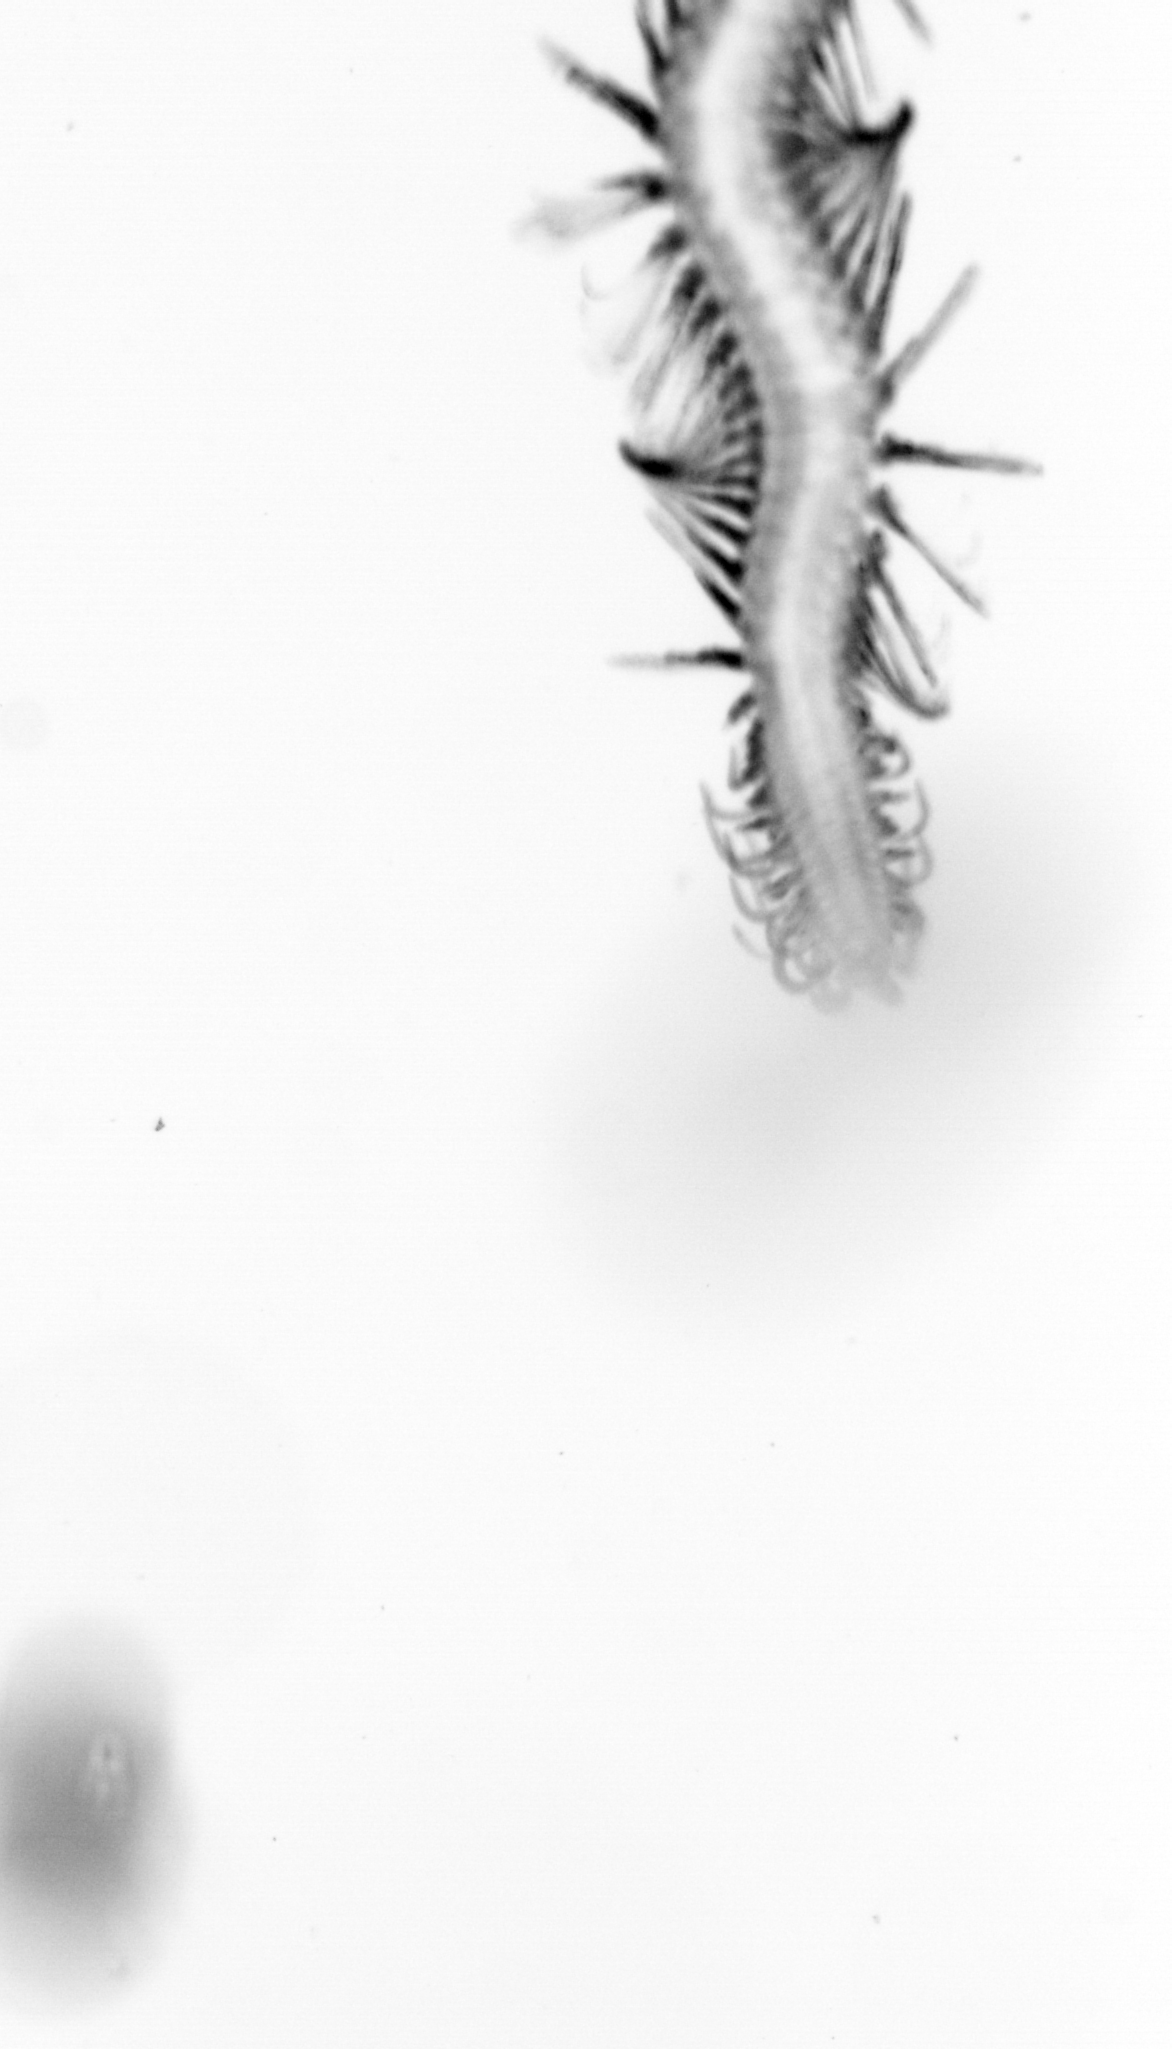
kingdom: Animalia
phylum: Annelida
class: Polychaeta
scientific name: Polychaeta
